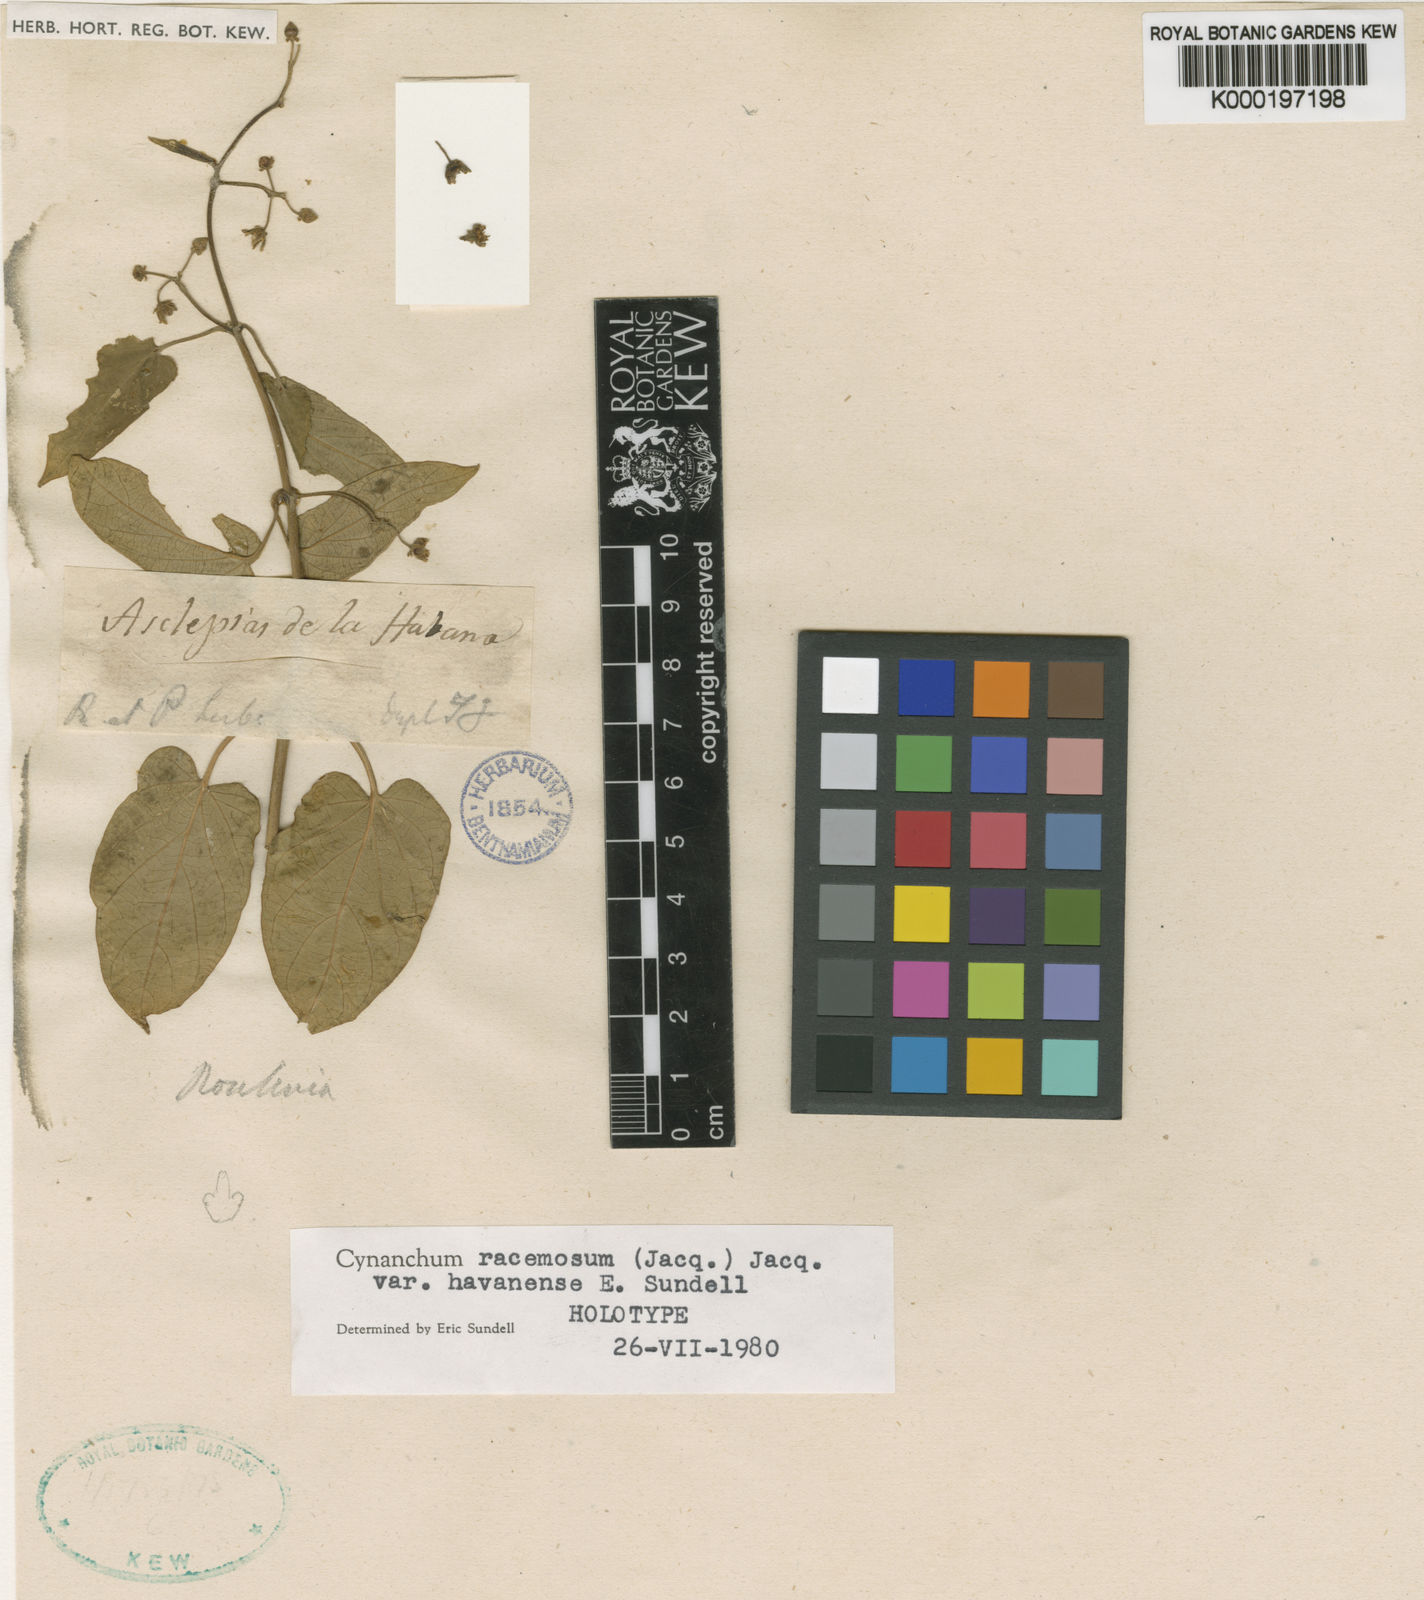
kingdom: Plantae
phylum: Tracheophyta
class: Magnoliopsida
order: Gentianales
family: Apocynaceae
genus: Cynanchum
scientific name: Cynanchum racemosum
